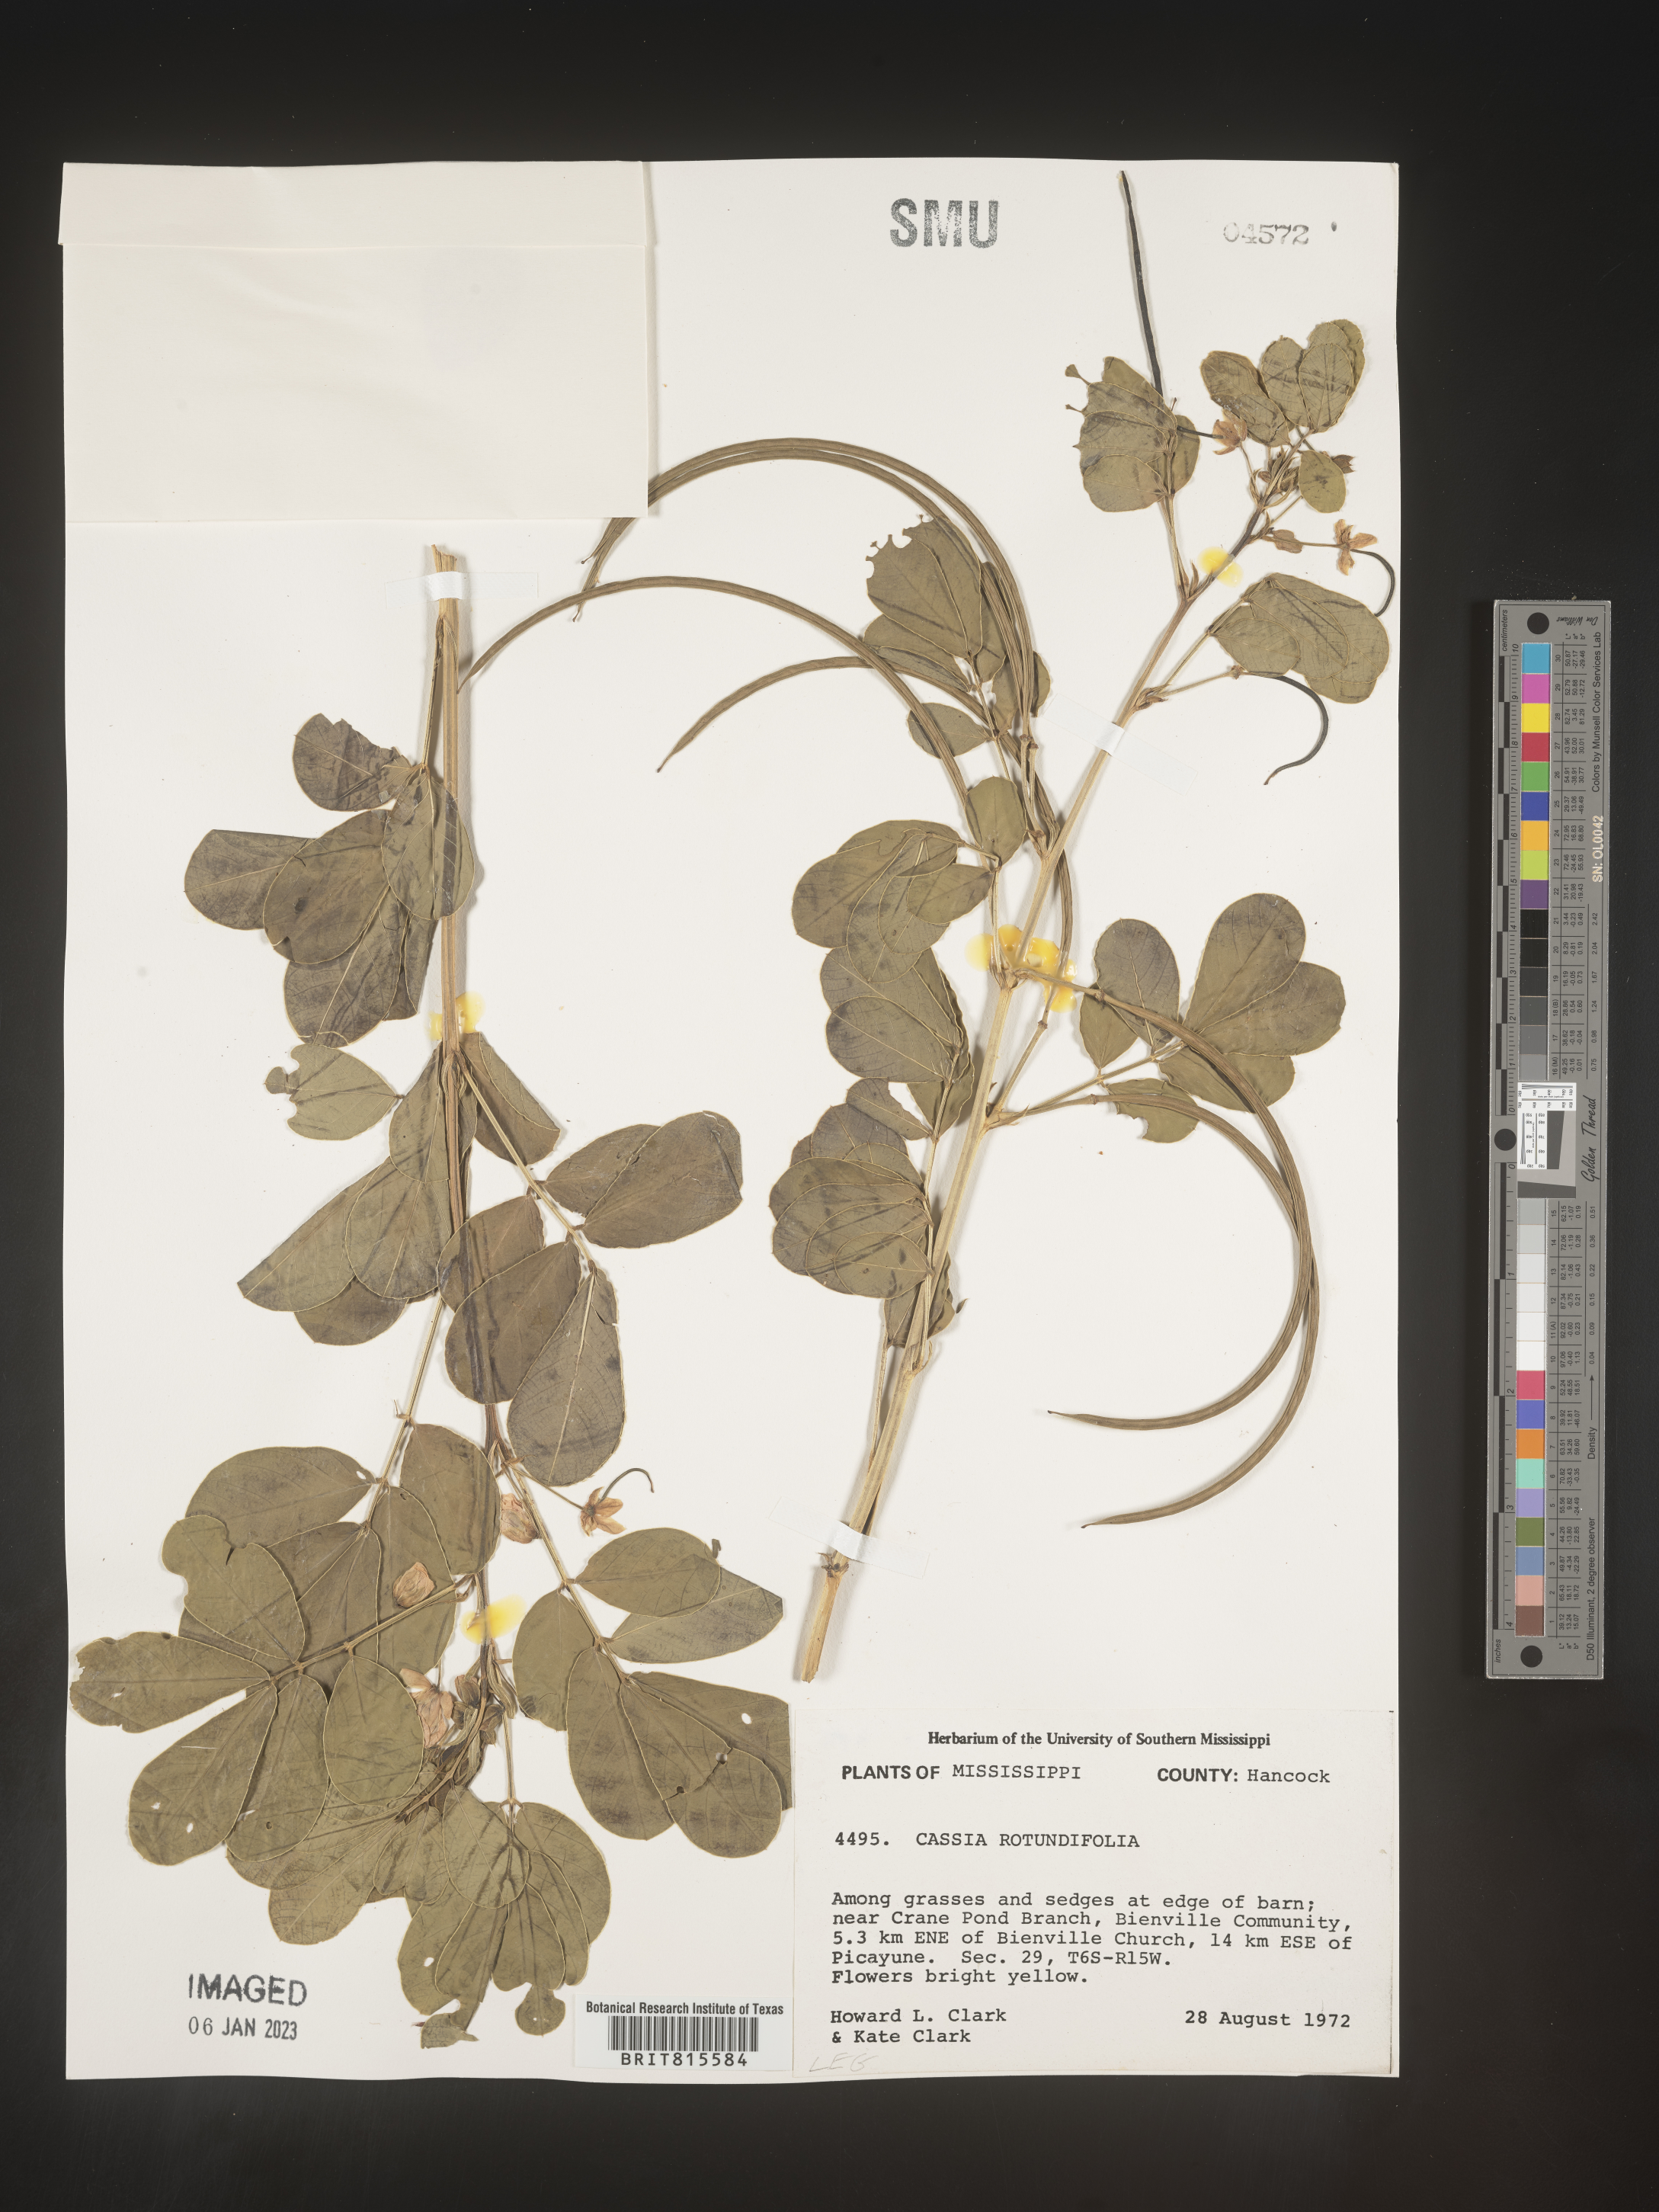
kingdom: Plantae
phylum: Tracheophyta
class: Magnoliopsida
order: Fabales
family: Fabaceae
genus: Cassia
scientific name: Cassia
